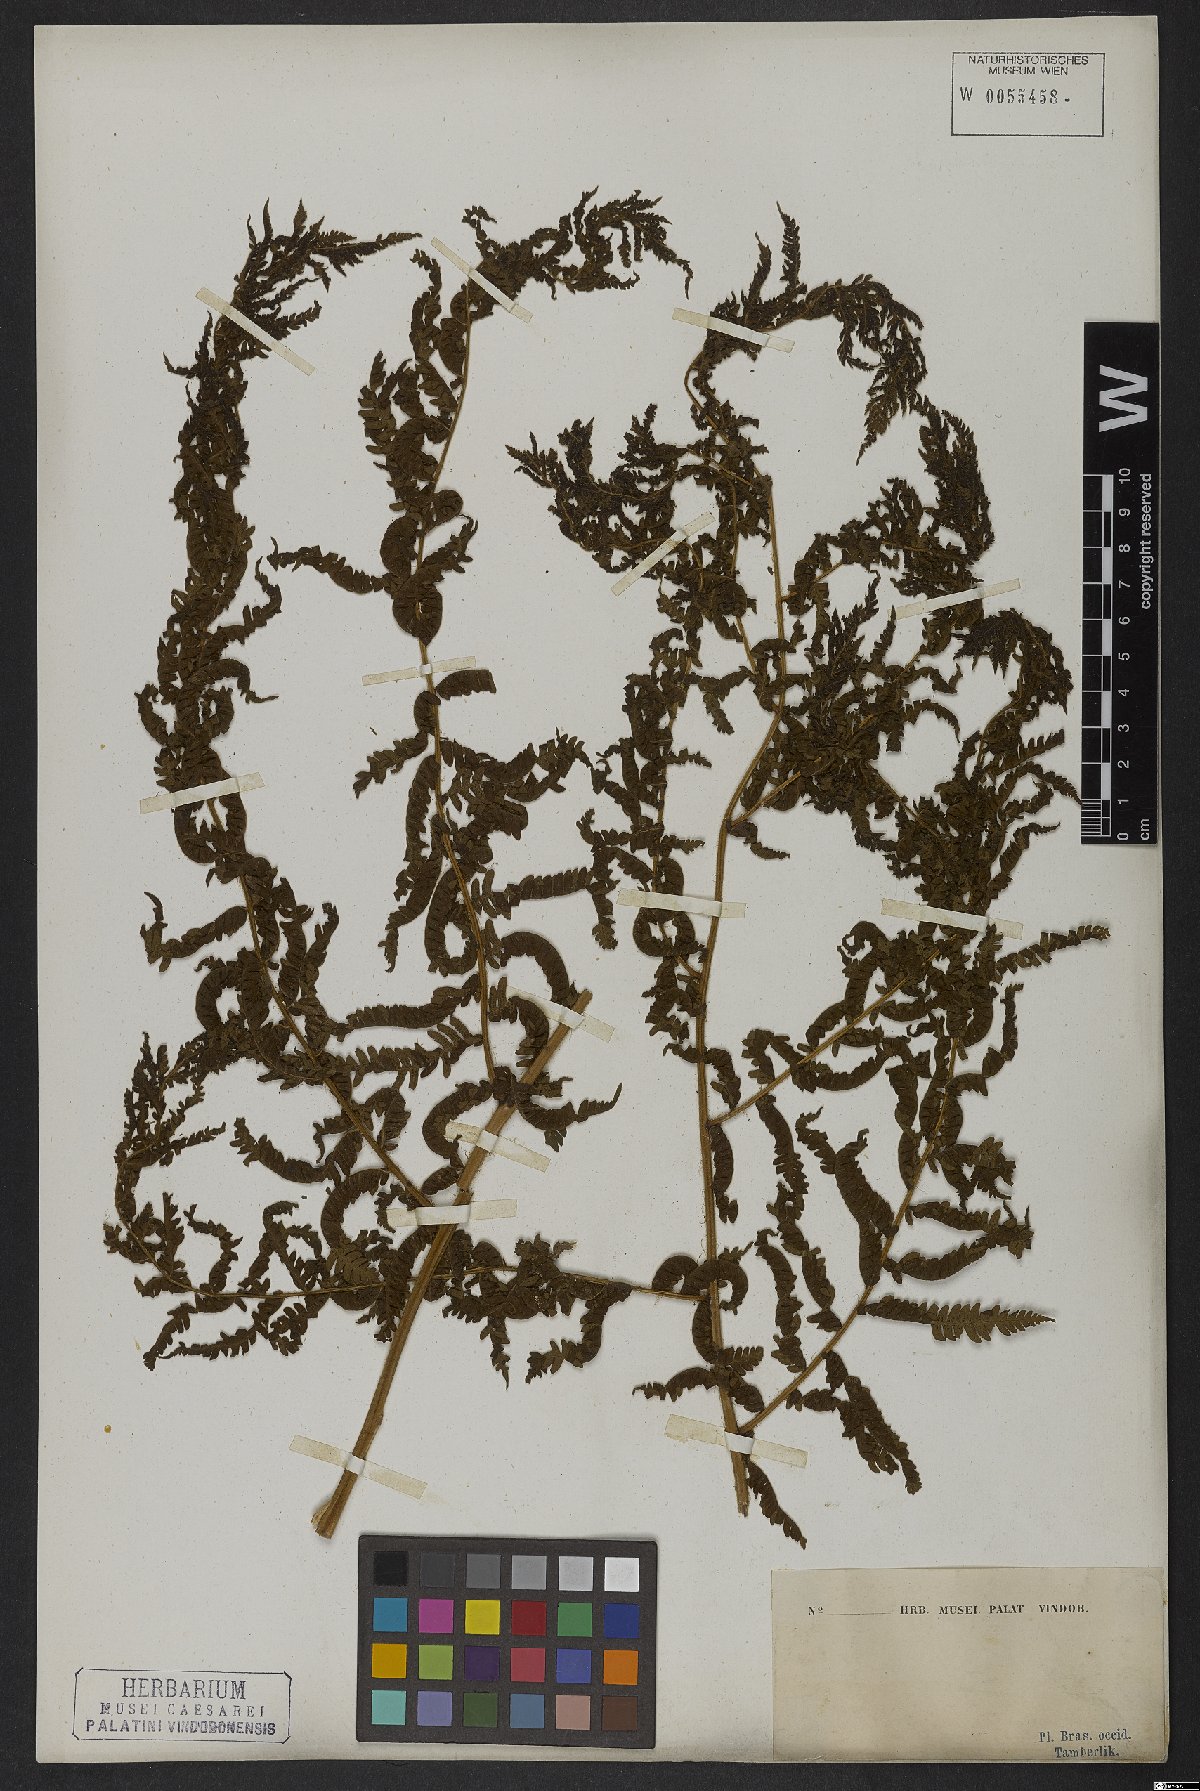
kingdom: Plantae
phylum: Tracheophyta
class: Polypodiopsida
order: Cyatheales
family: Cyatheaceae
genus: Cyathea
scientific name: Cyathea aurea
